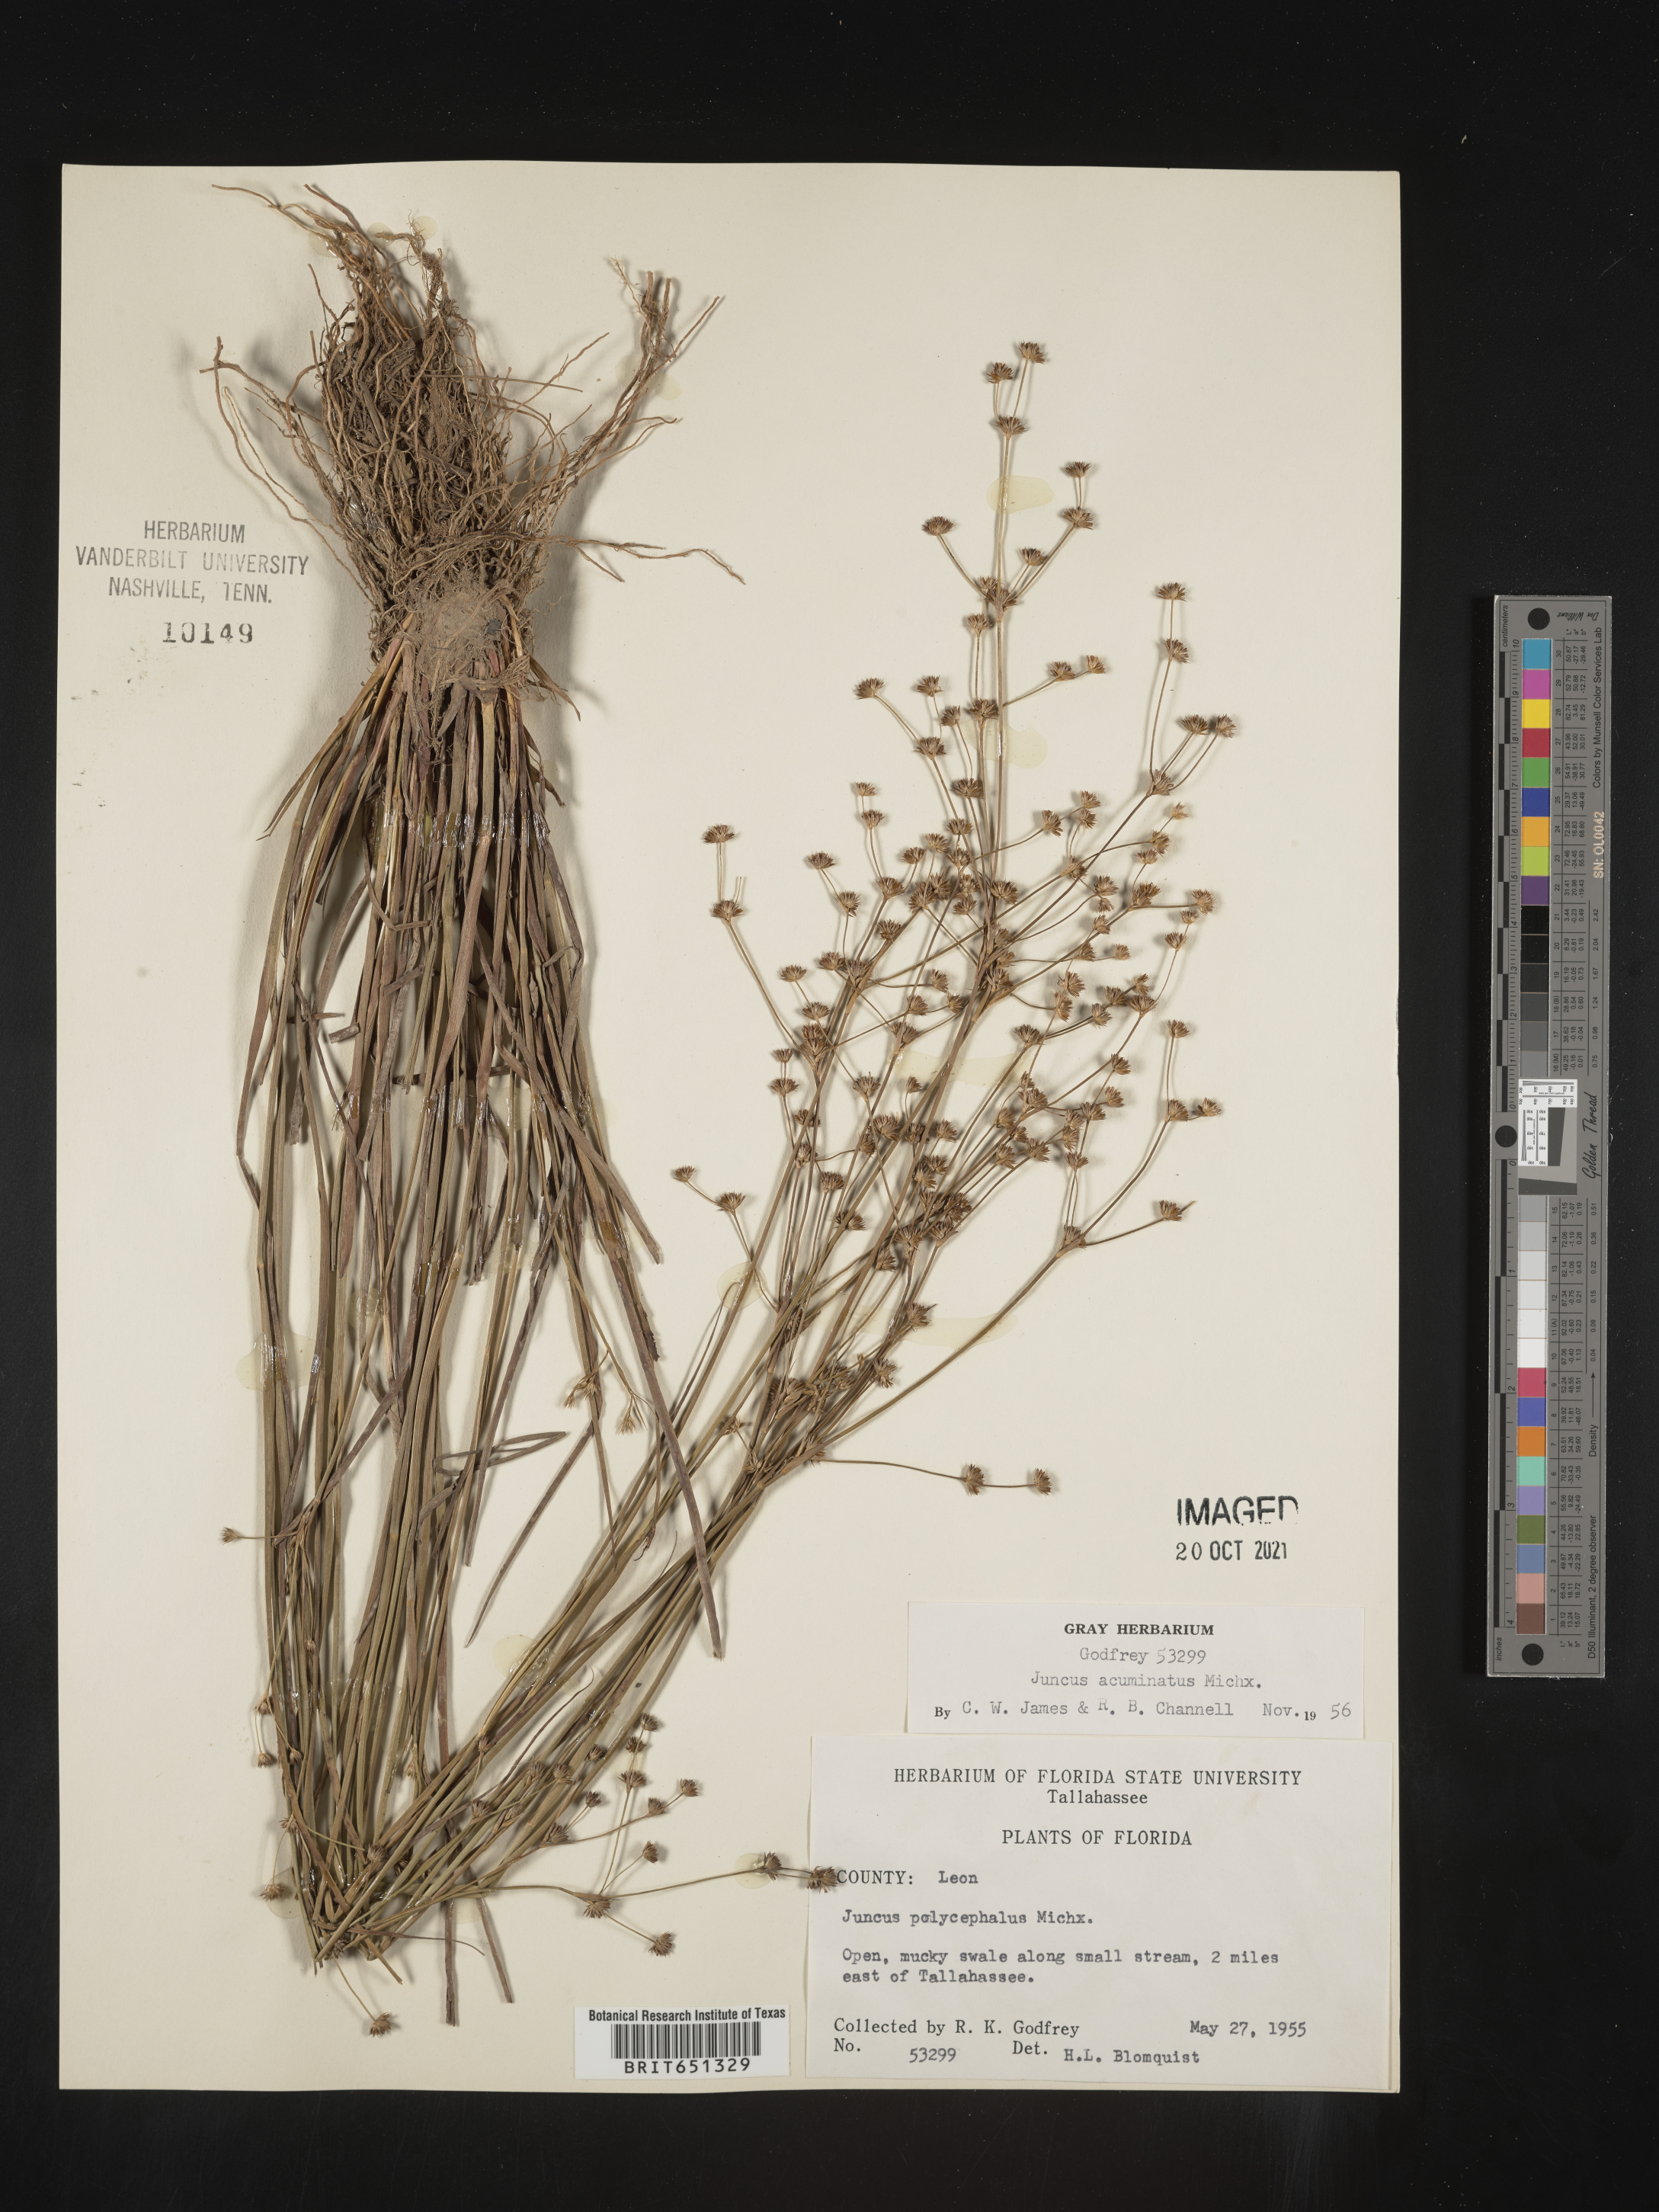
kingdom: Plantae
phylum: Tracheophyta
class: Liliopsida
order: Poales
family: Juncaceae
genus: Juncus
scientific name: Juncus acuminatus
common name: Knotty-leaved rush
